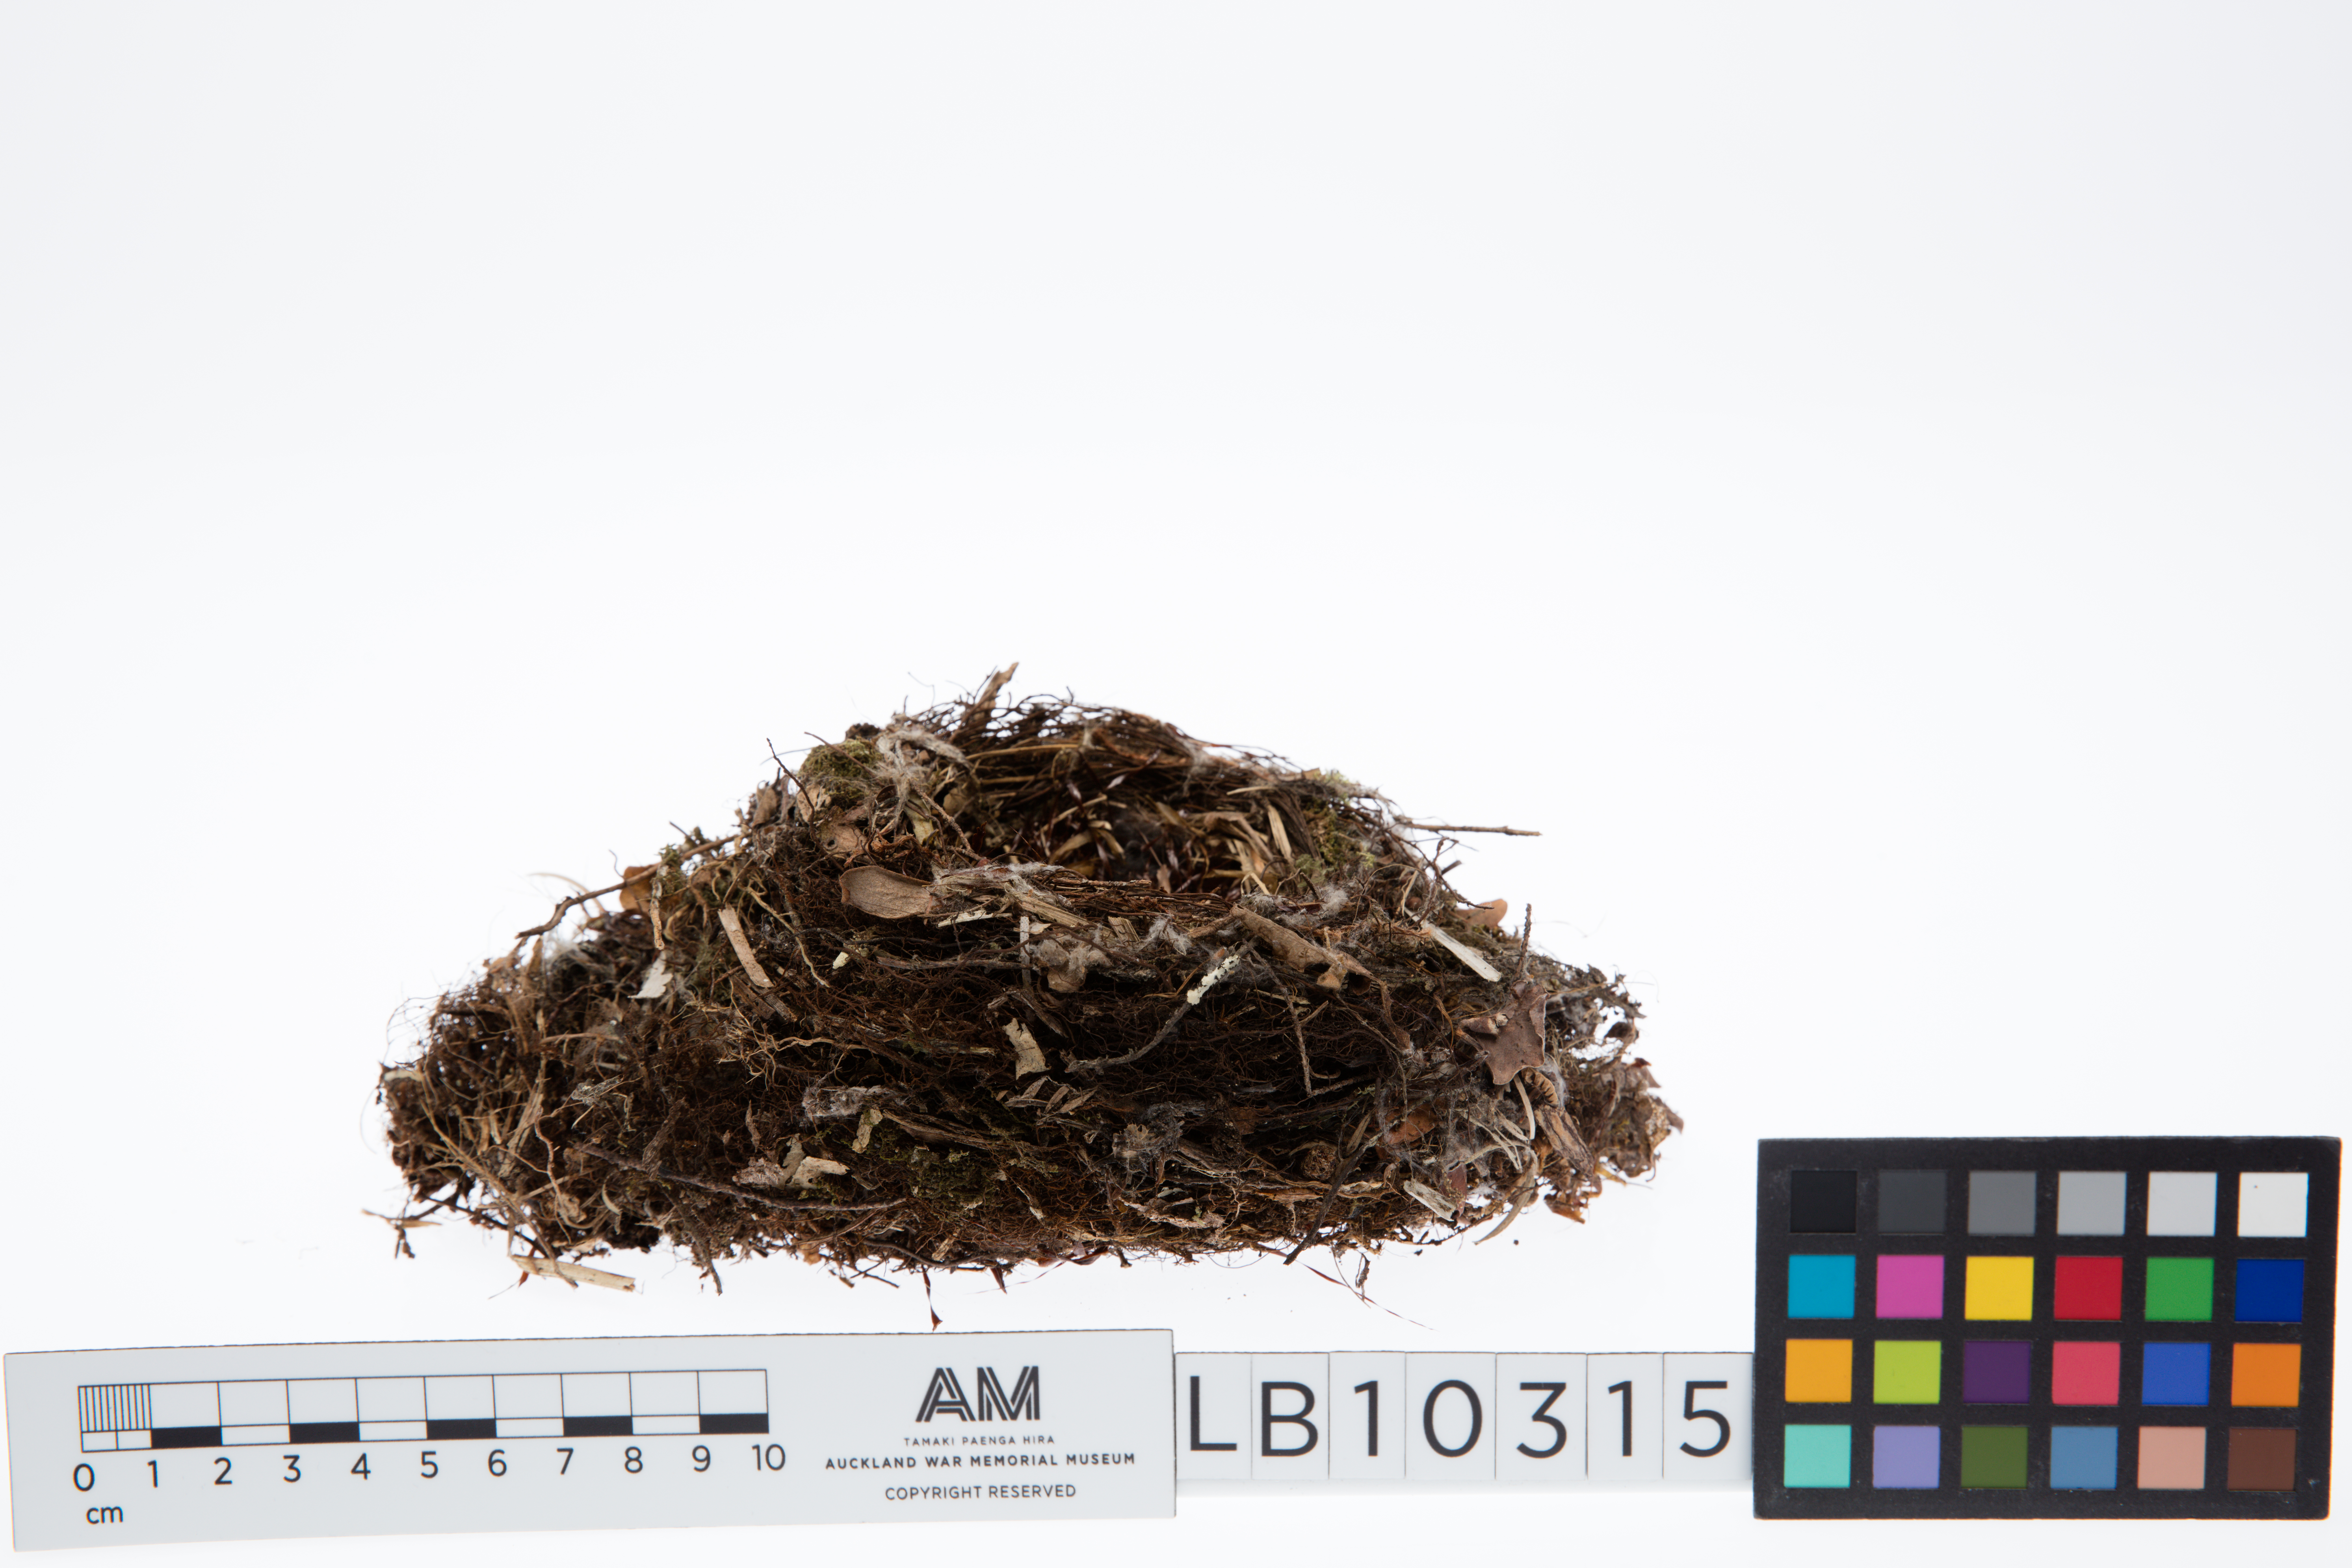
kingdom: Animalia
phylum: Chordata
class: Aves
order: Passeriformes
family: Petroicidae
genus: Petroica
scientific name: Petroica australis
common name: New zealand robin
